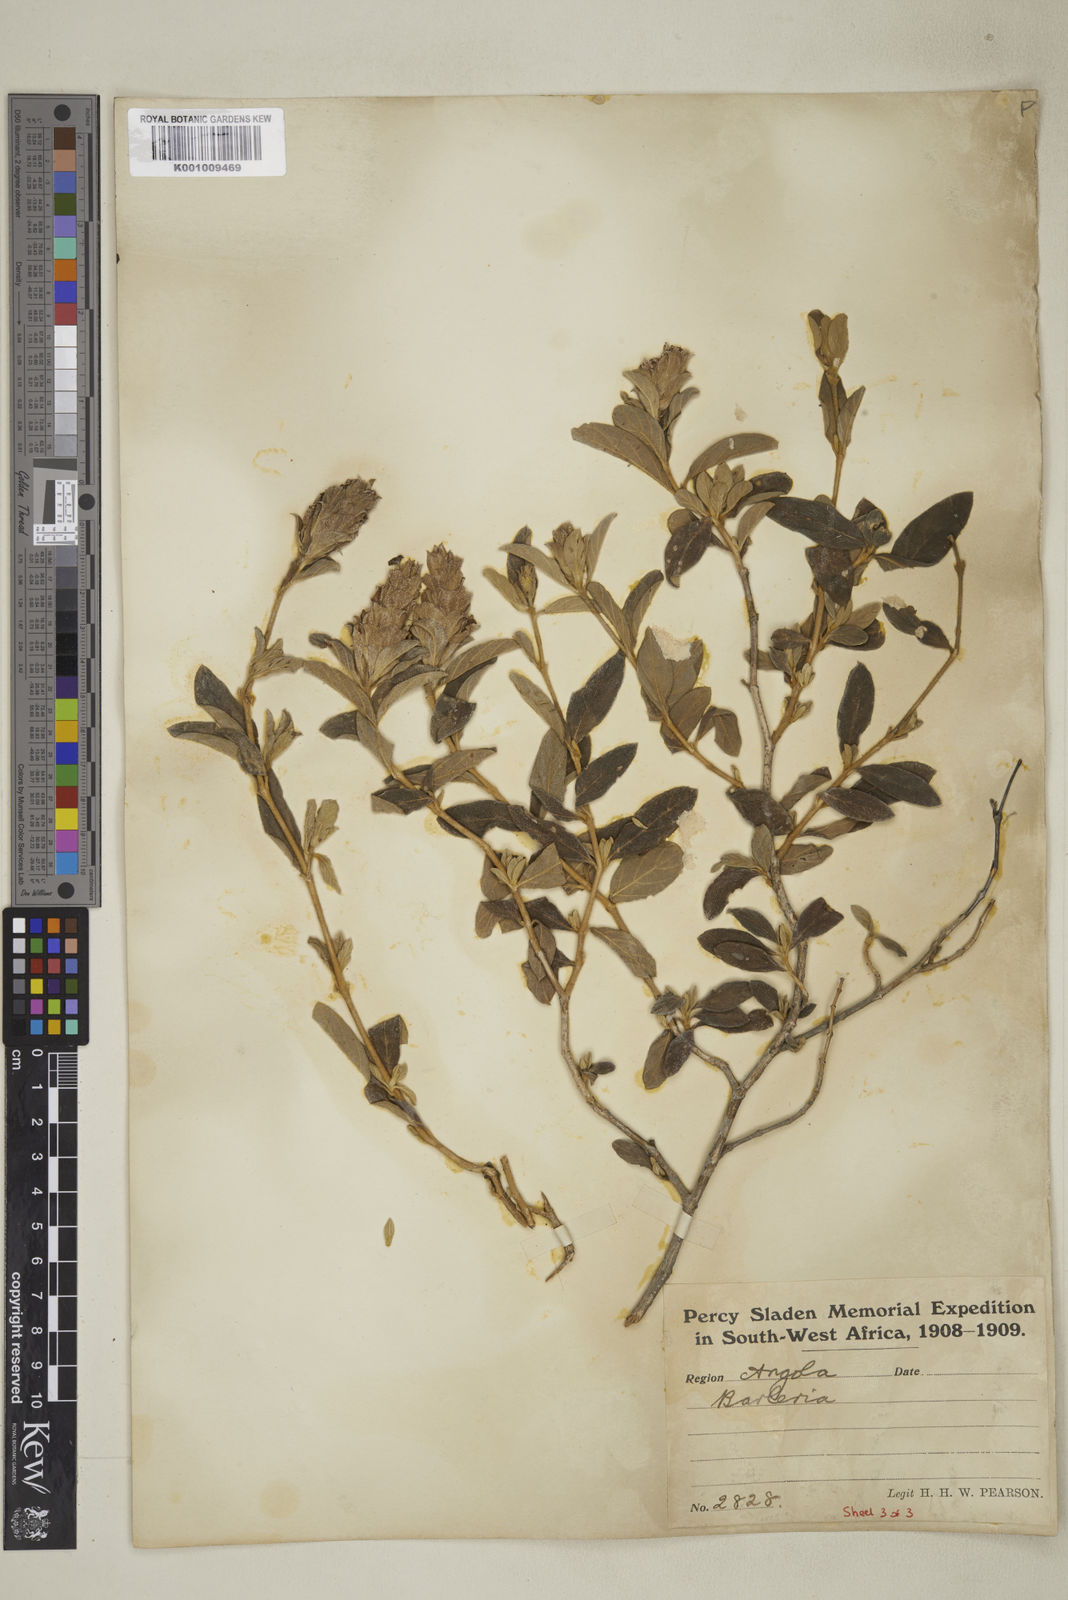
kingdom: Plantae
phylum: Tracheophyta
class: Magnoliopsida
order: Lamiales
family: Acanthaceae
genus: Barleria
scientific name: Barleria taitensis
